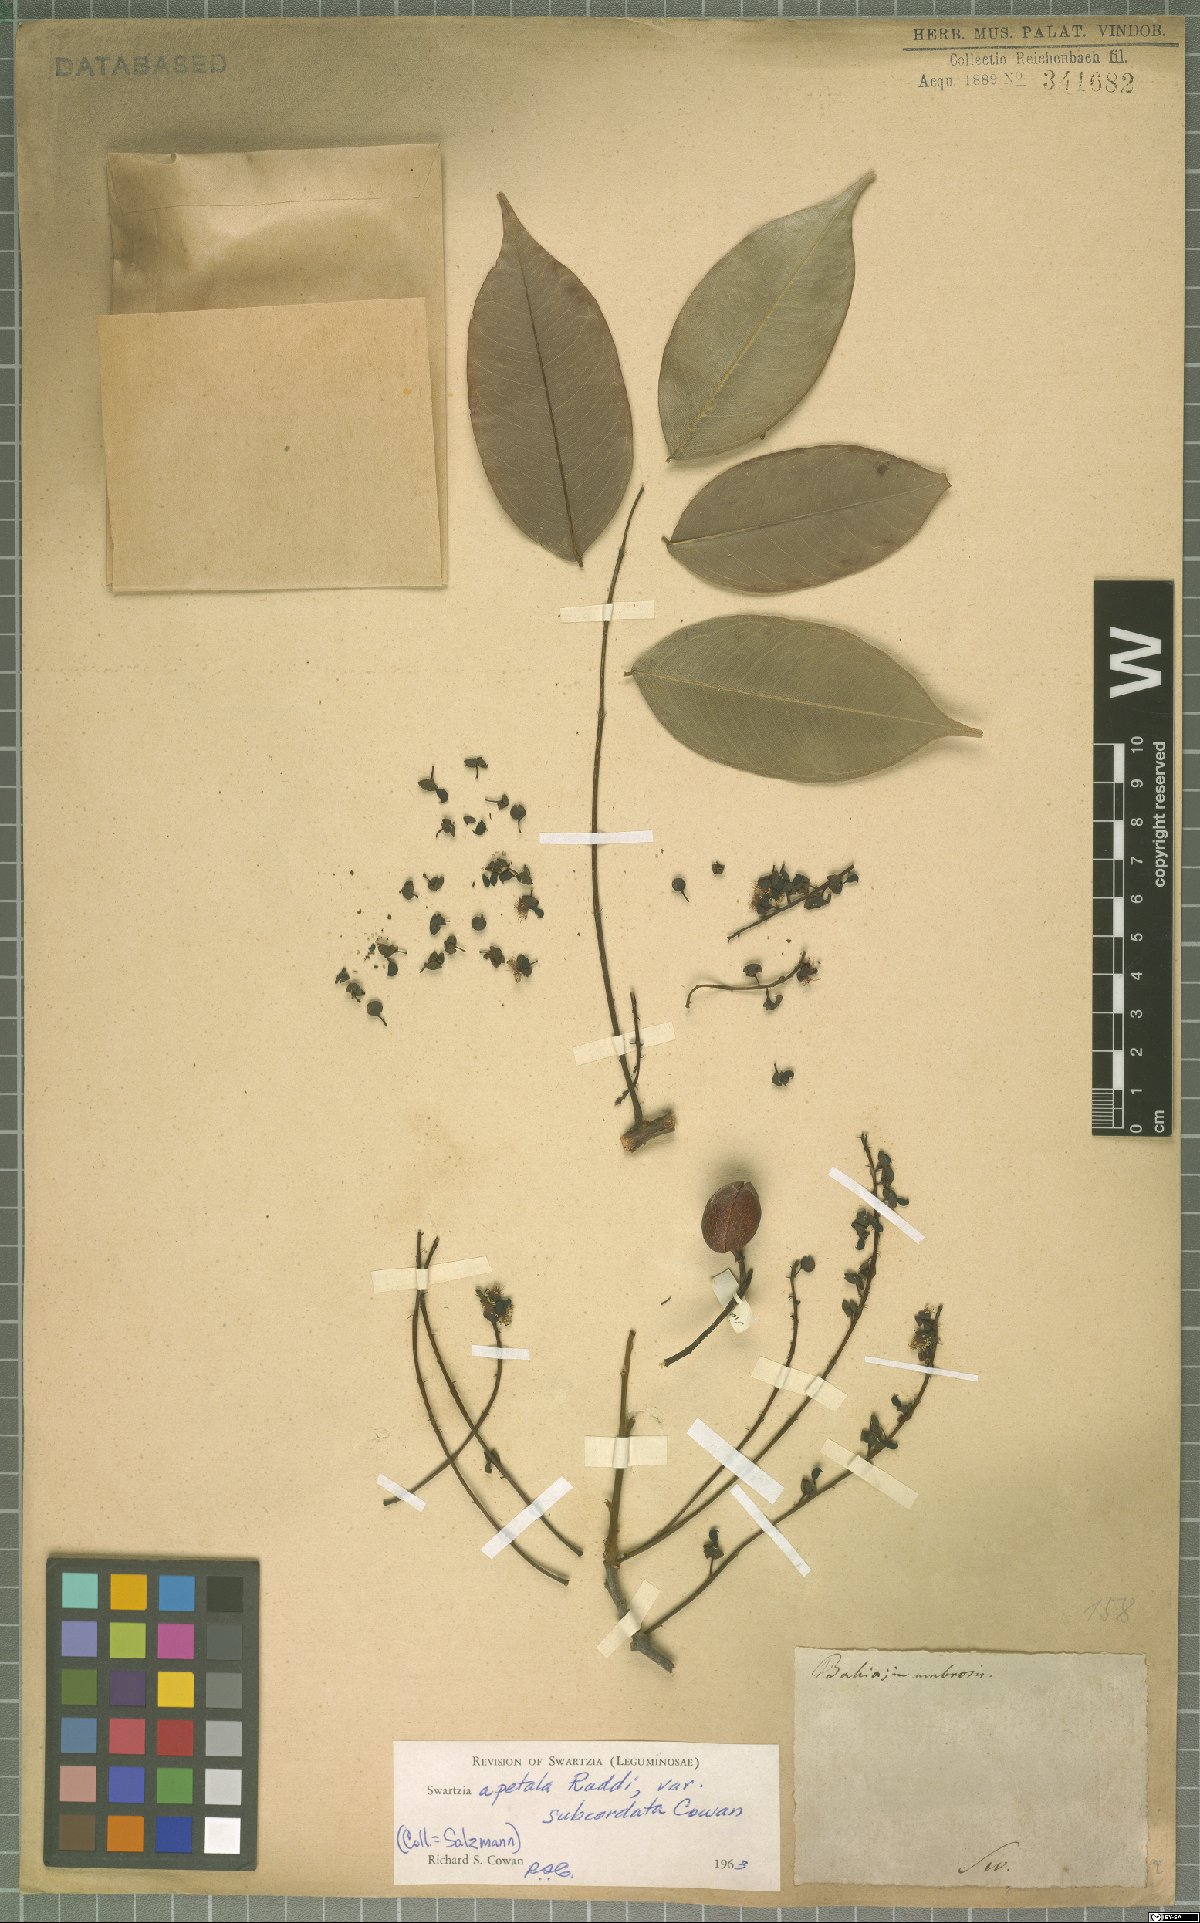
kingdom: Plantae
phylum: Tracheophyta
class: Magnoliopsida
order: Fabales
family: Fabaceae
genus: Swartzia
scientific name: Swartzia apetala
